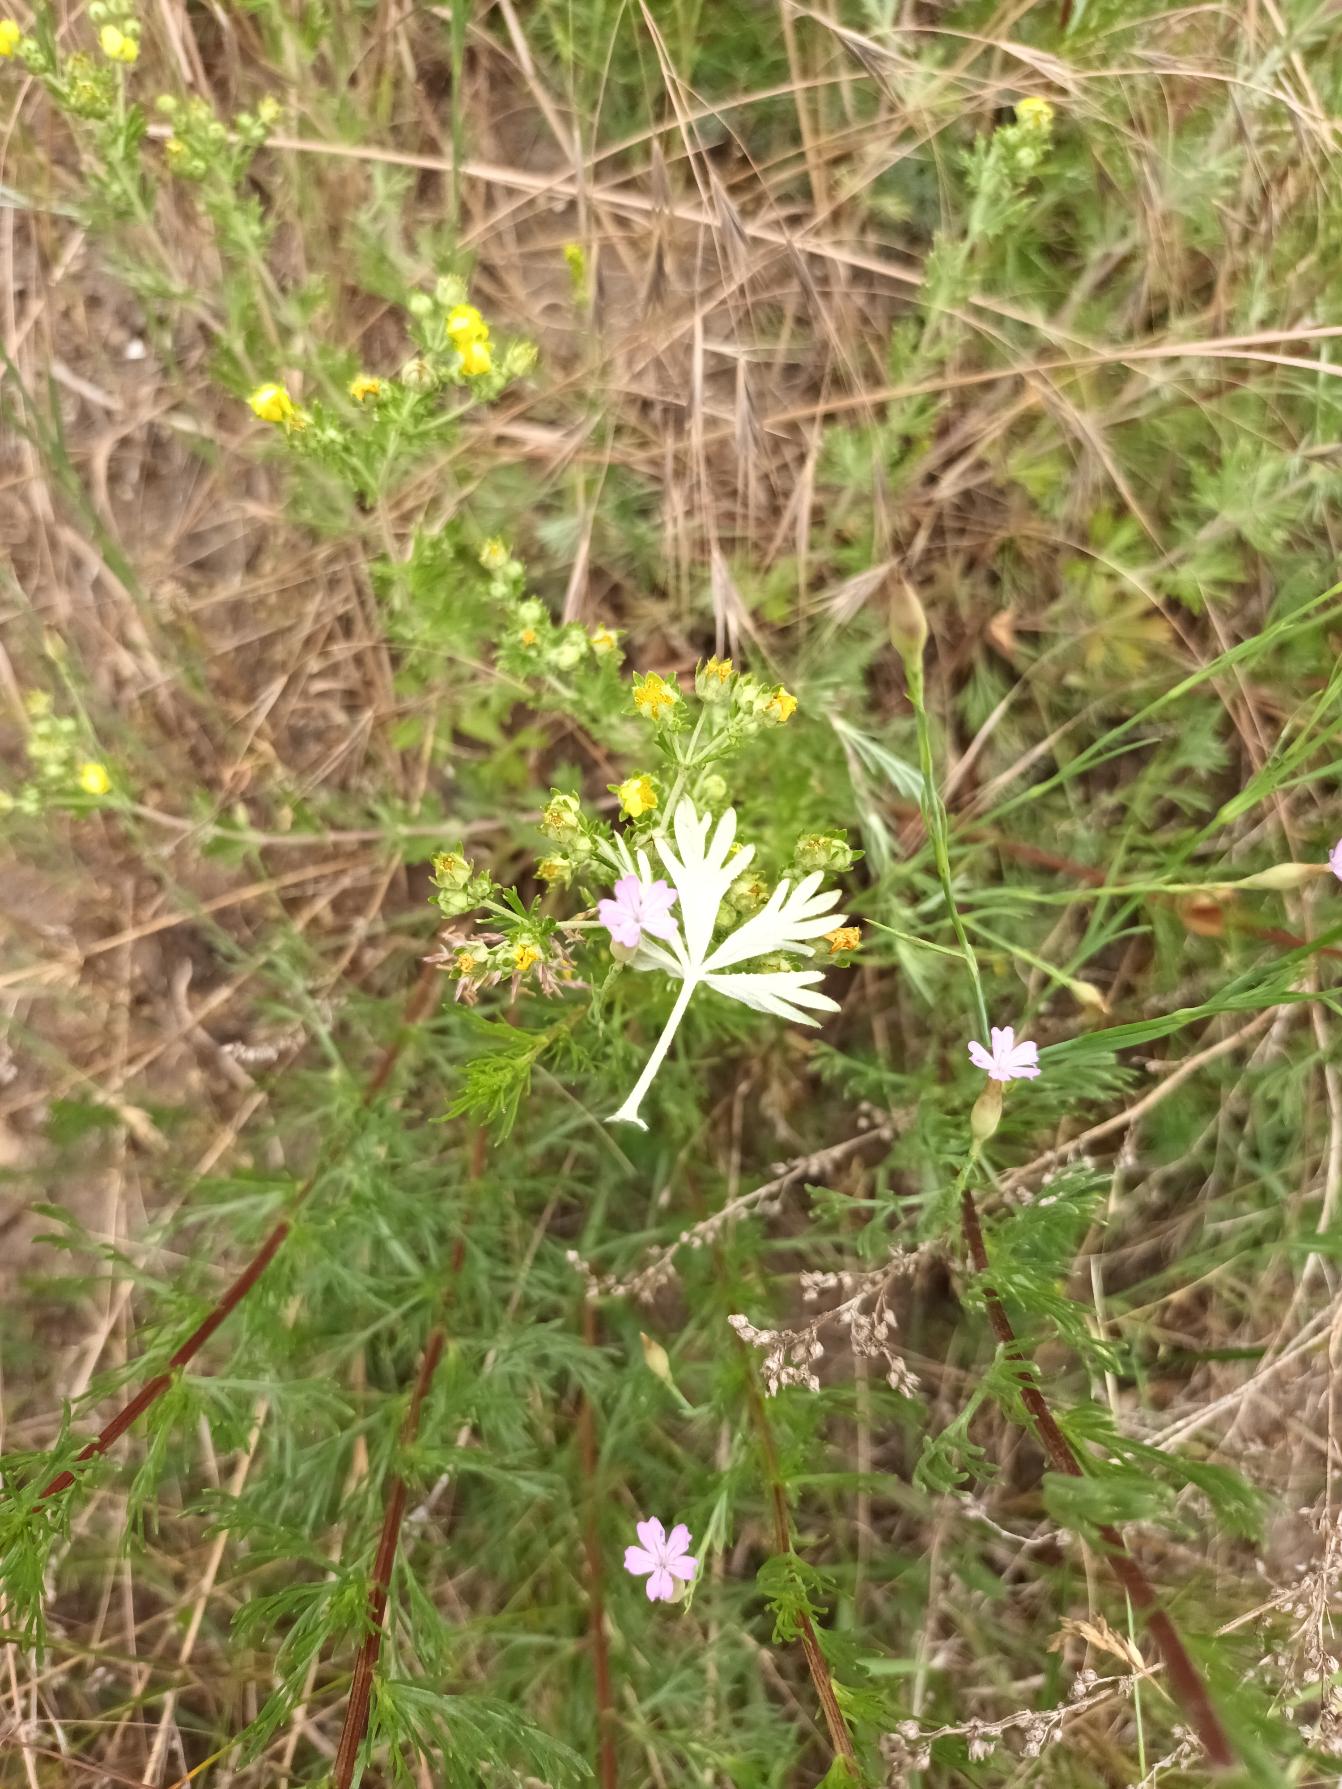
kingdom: Plantae
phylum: Tracheophyta
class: Magnoliopsida
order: Rosales
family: Rosaceae
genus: Potentilla
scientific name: Potentilla argentea
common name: Sølv-potentil
